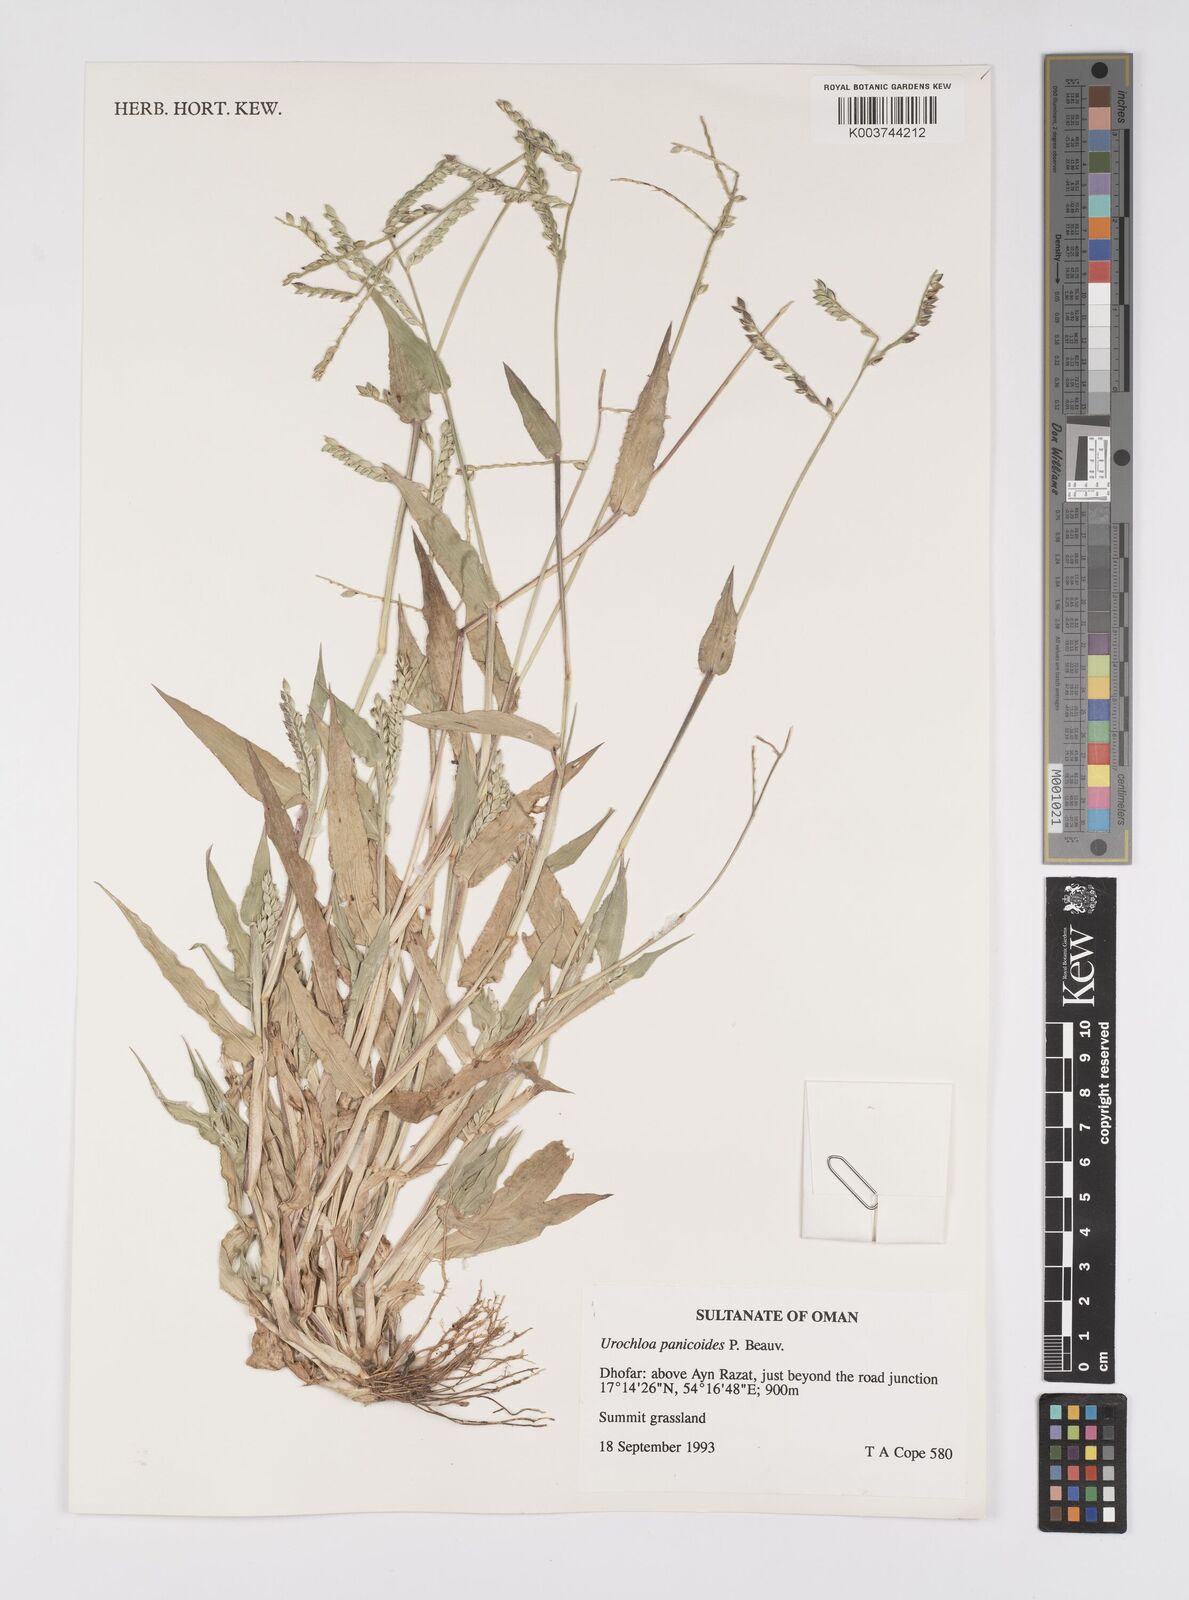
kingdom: Plantae
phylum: Tracheophyta
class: Liliopsida
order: Poales
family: Poaceae
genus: Urochloa
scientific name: Urochloa panicoides
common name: Sharp-flowered signal-grass
